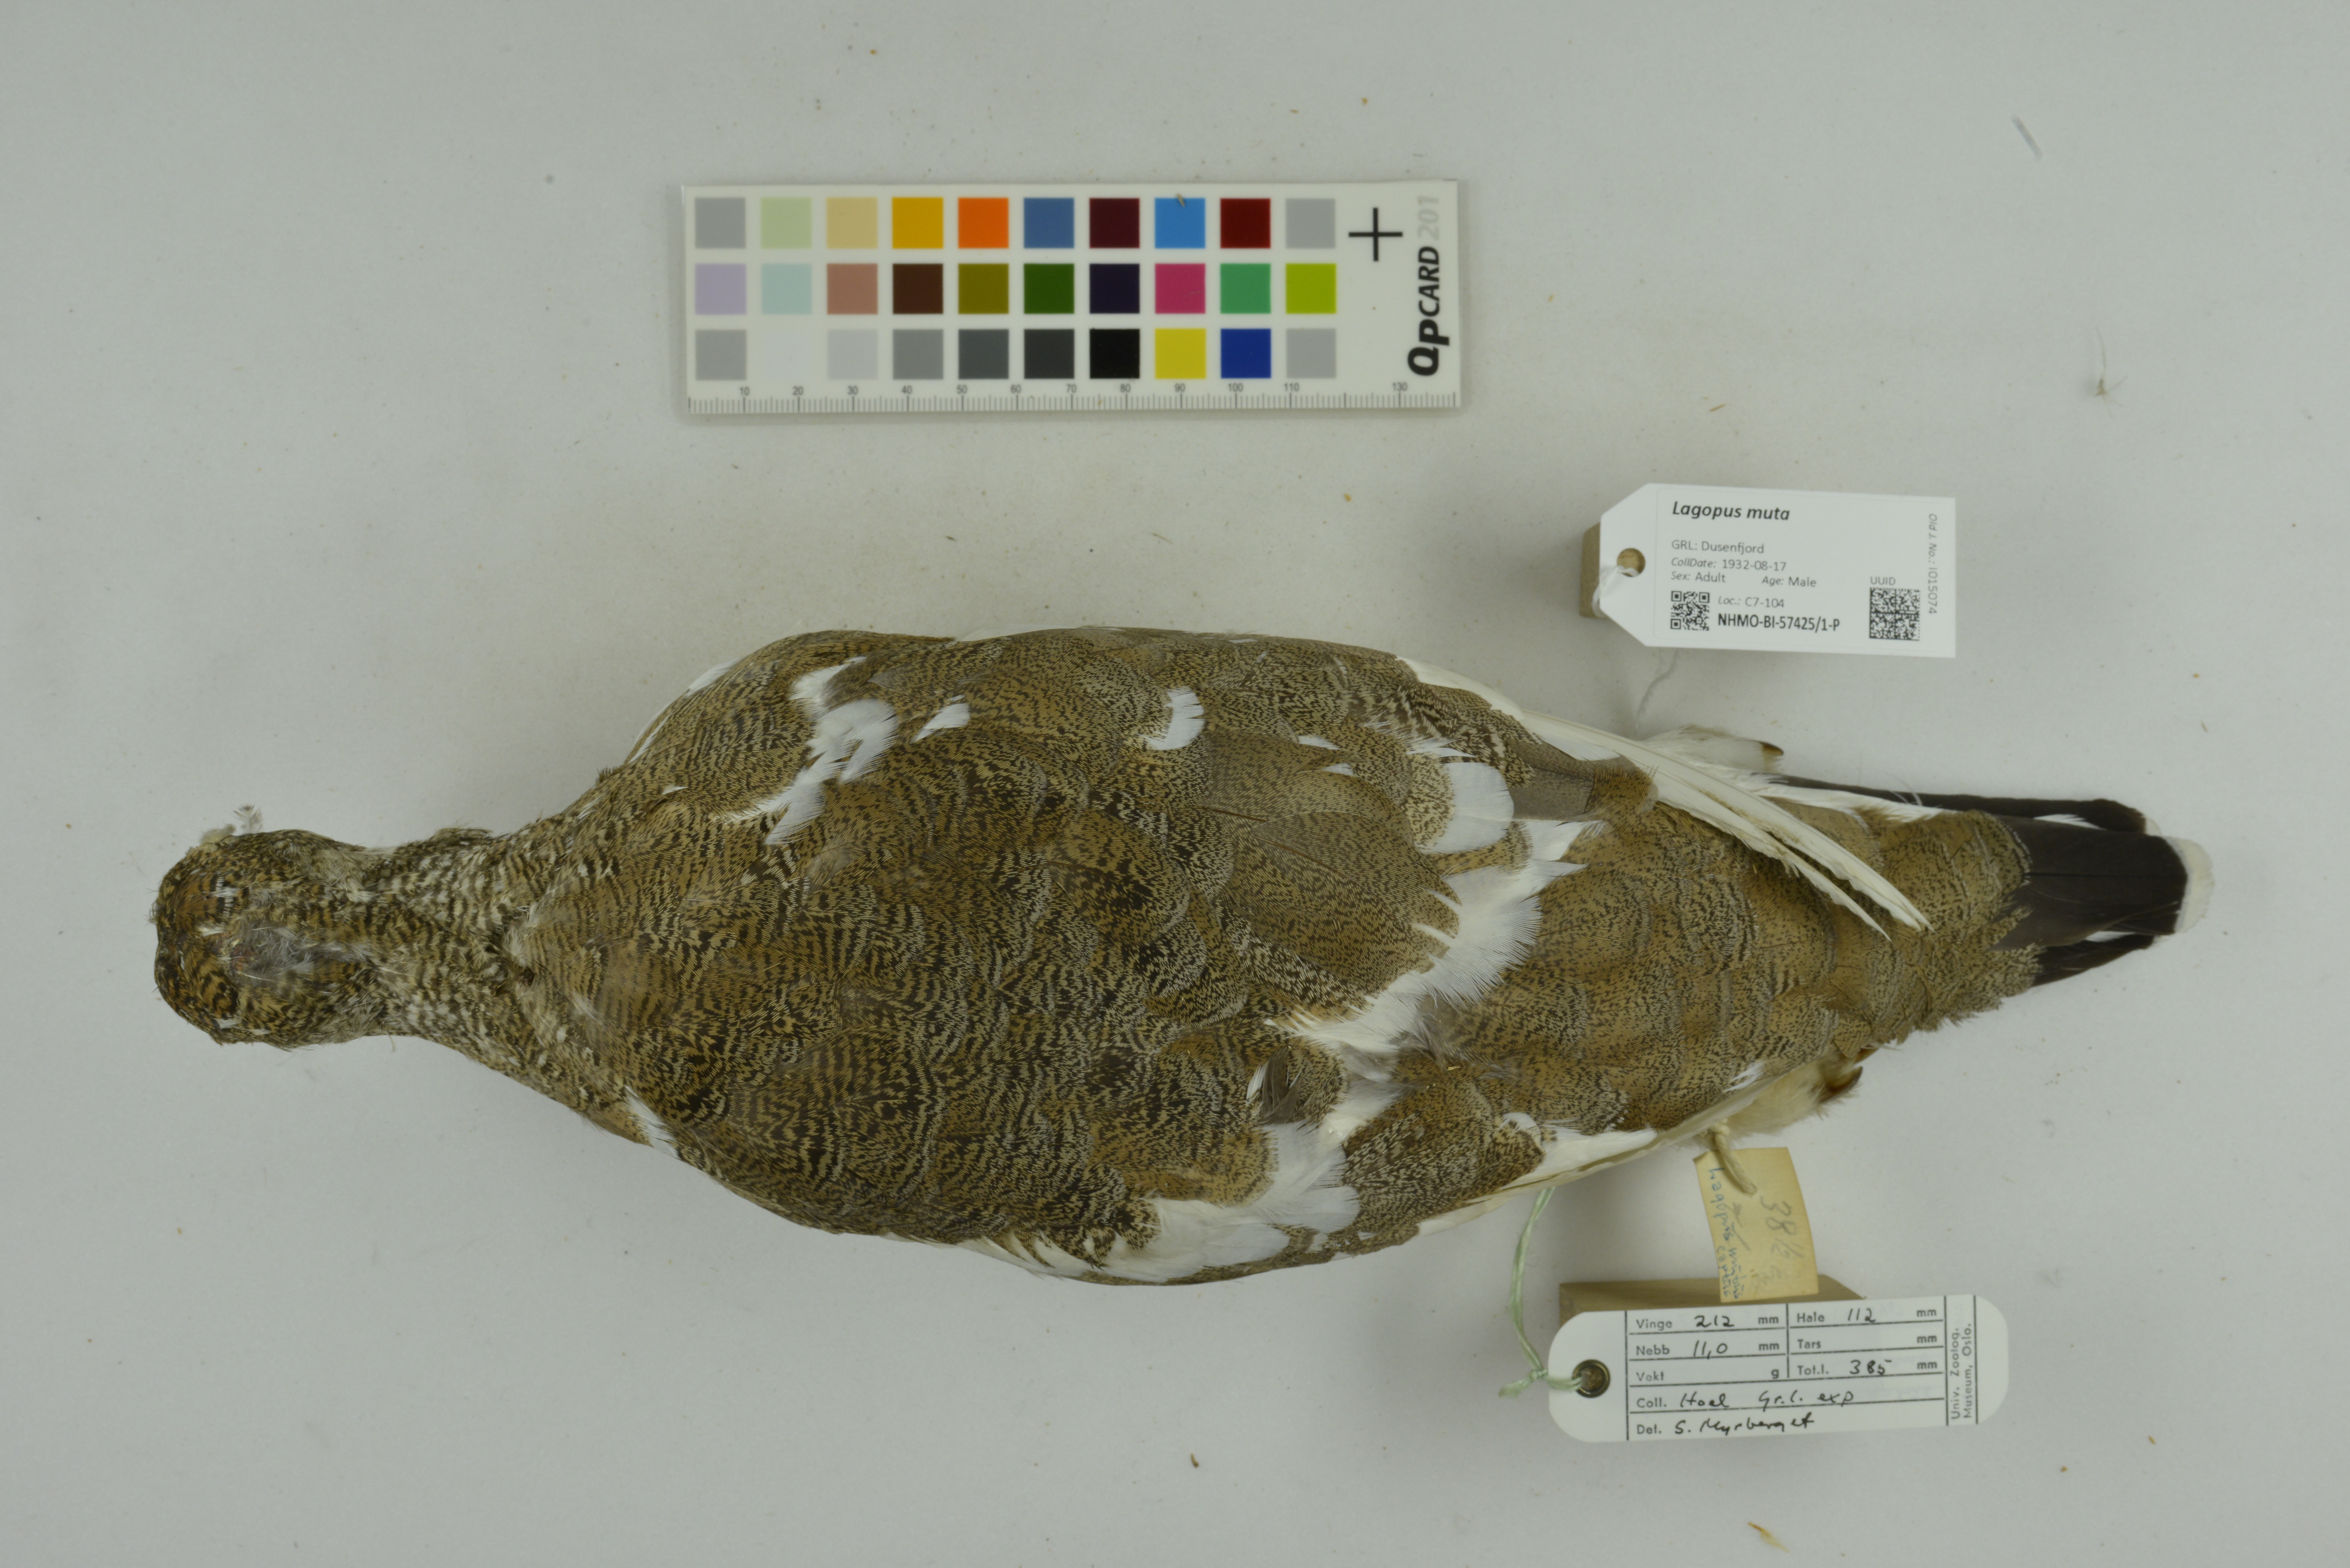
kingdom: Animalia
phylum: Chordata
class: Aves
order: Galliformes
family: Phasianidae
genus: Lagopus
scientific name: Lagopus muta
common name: Rock ptarmigan
